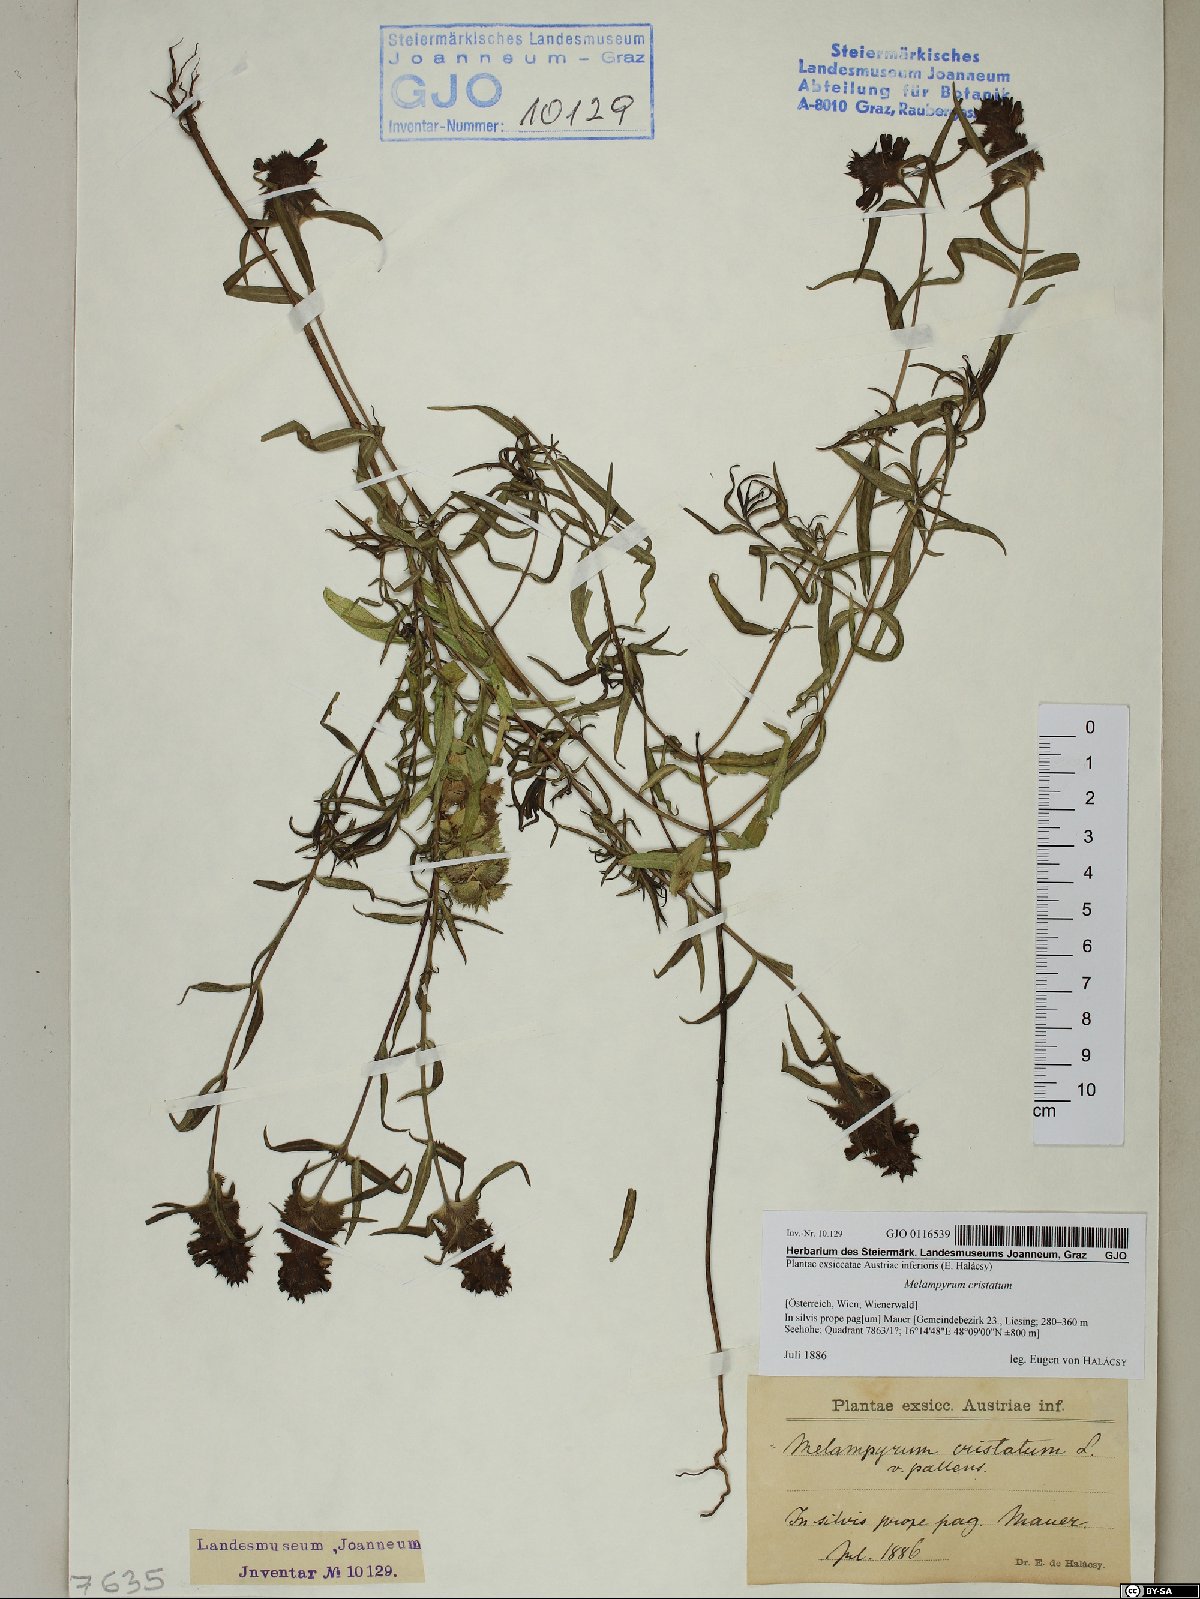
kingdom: Plantae
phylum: Tracheophyta
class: Magnoliopsida
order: Lamiales
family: Orobanchaceae
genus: Melampyrum
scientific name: Melampyrum cristatum
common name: Crested cow-wheat
